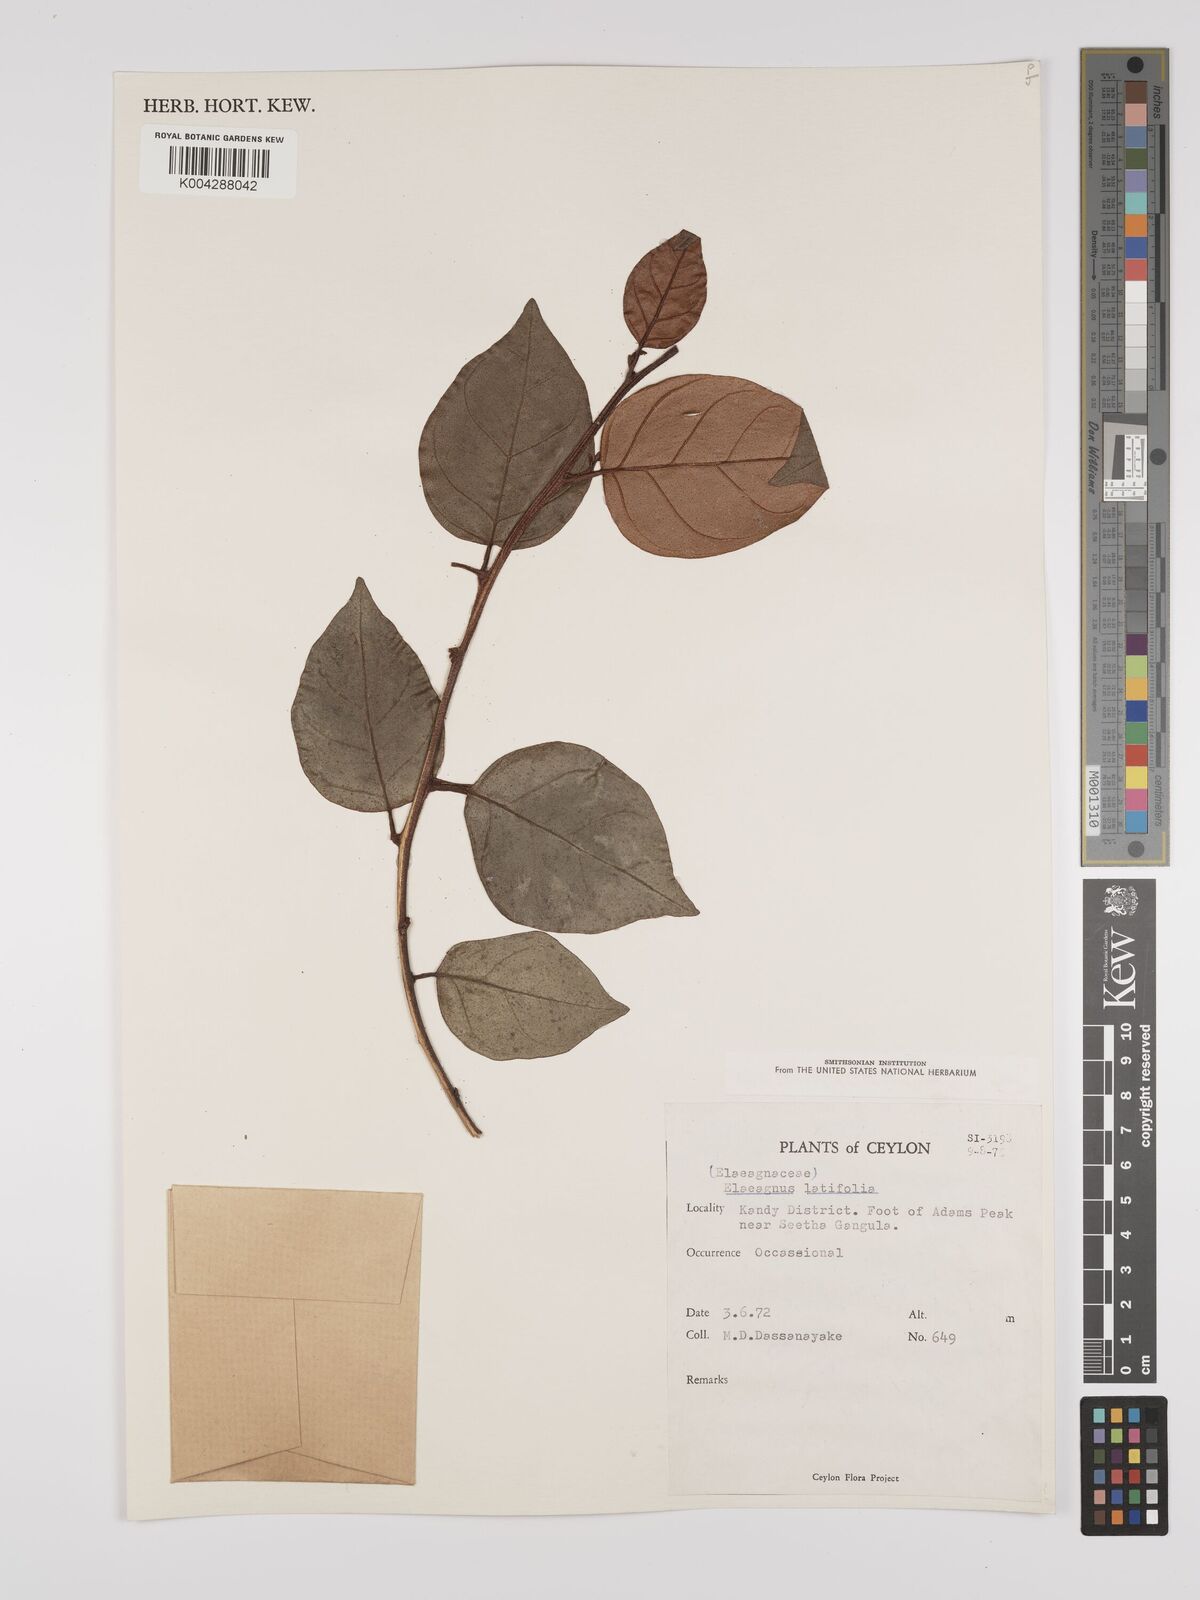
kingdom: Plantae
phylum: Tracheophyta
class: Magnoliopsida
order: Rosales
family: Elaeagnaceae
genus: Elaeagnus
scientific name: Elaeagnus latifolia
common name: Oleaster
